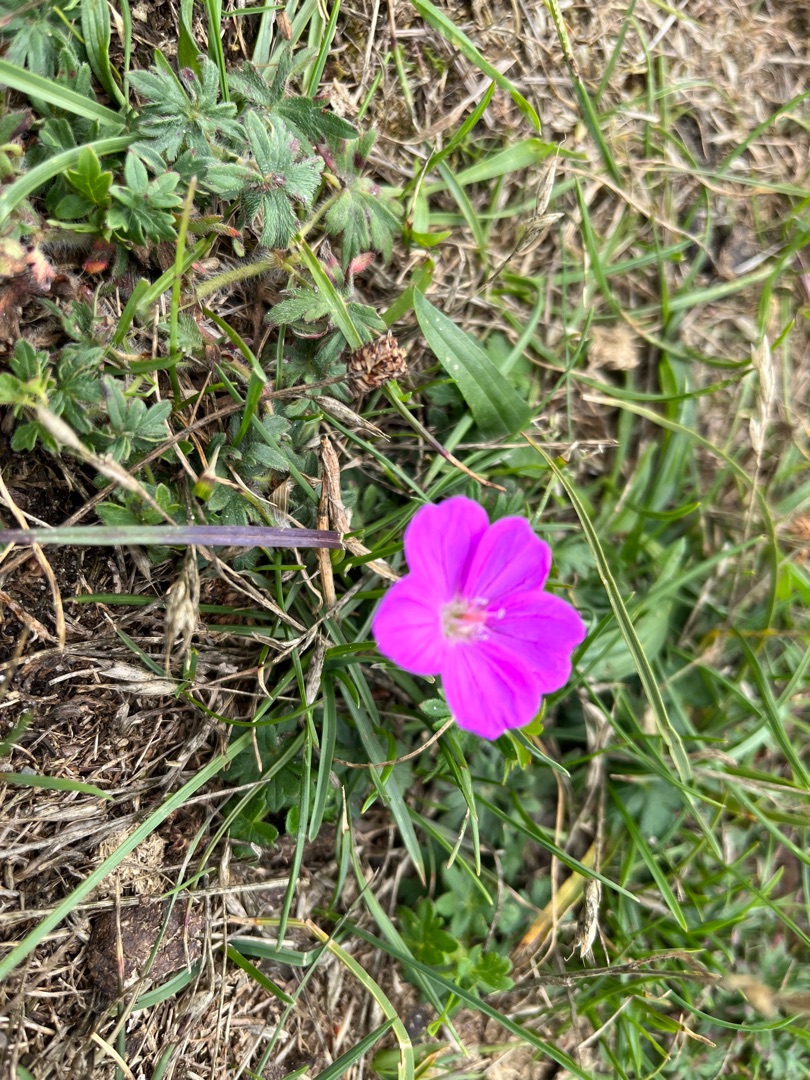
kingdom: Plantae
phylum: Tracheophyta
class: Magnoliopsida
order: Geraniales
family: Geraniaceae
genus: Geranium
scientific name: Geranium sanguineum
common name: Blodrød storkenæb
